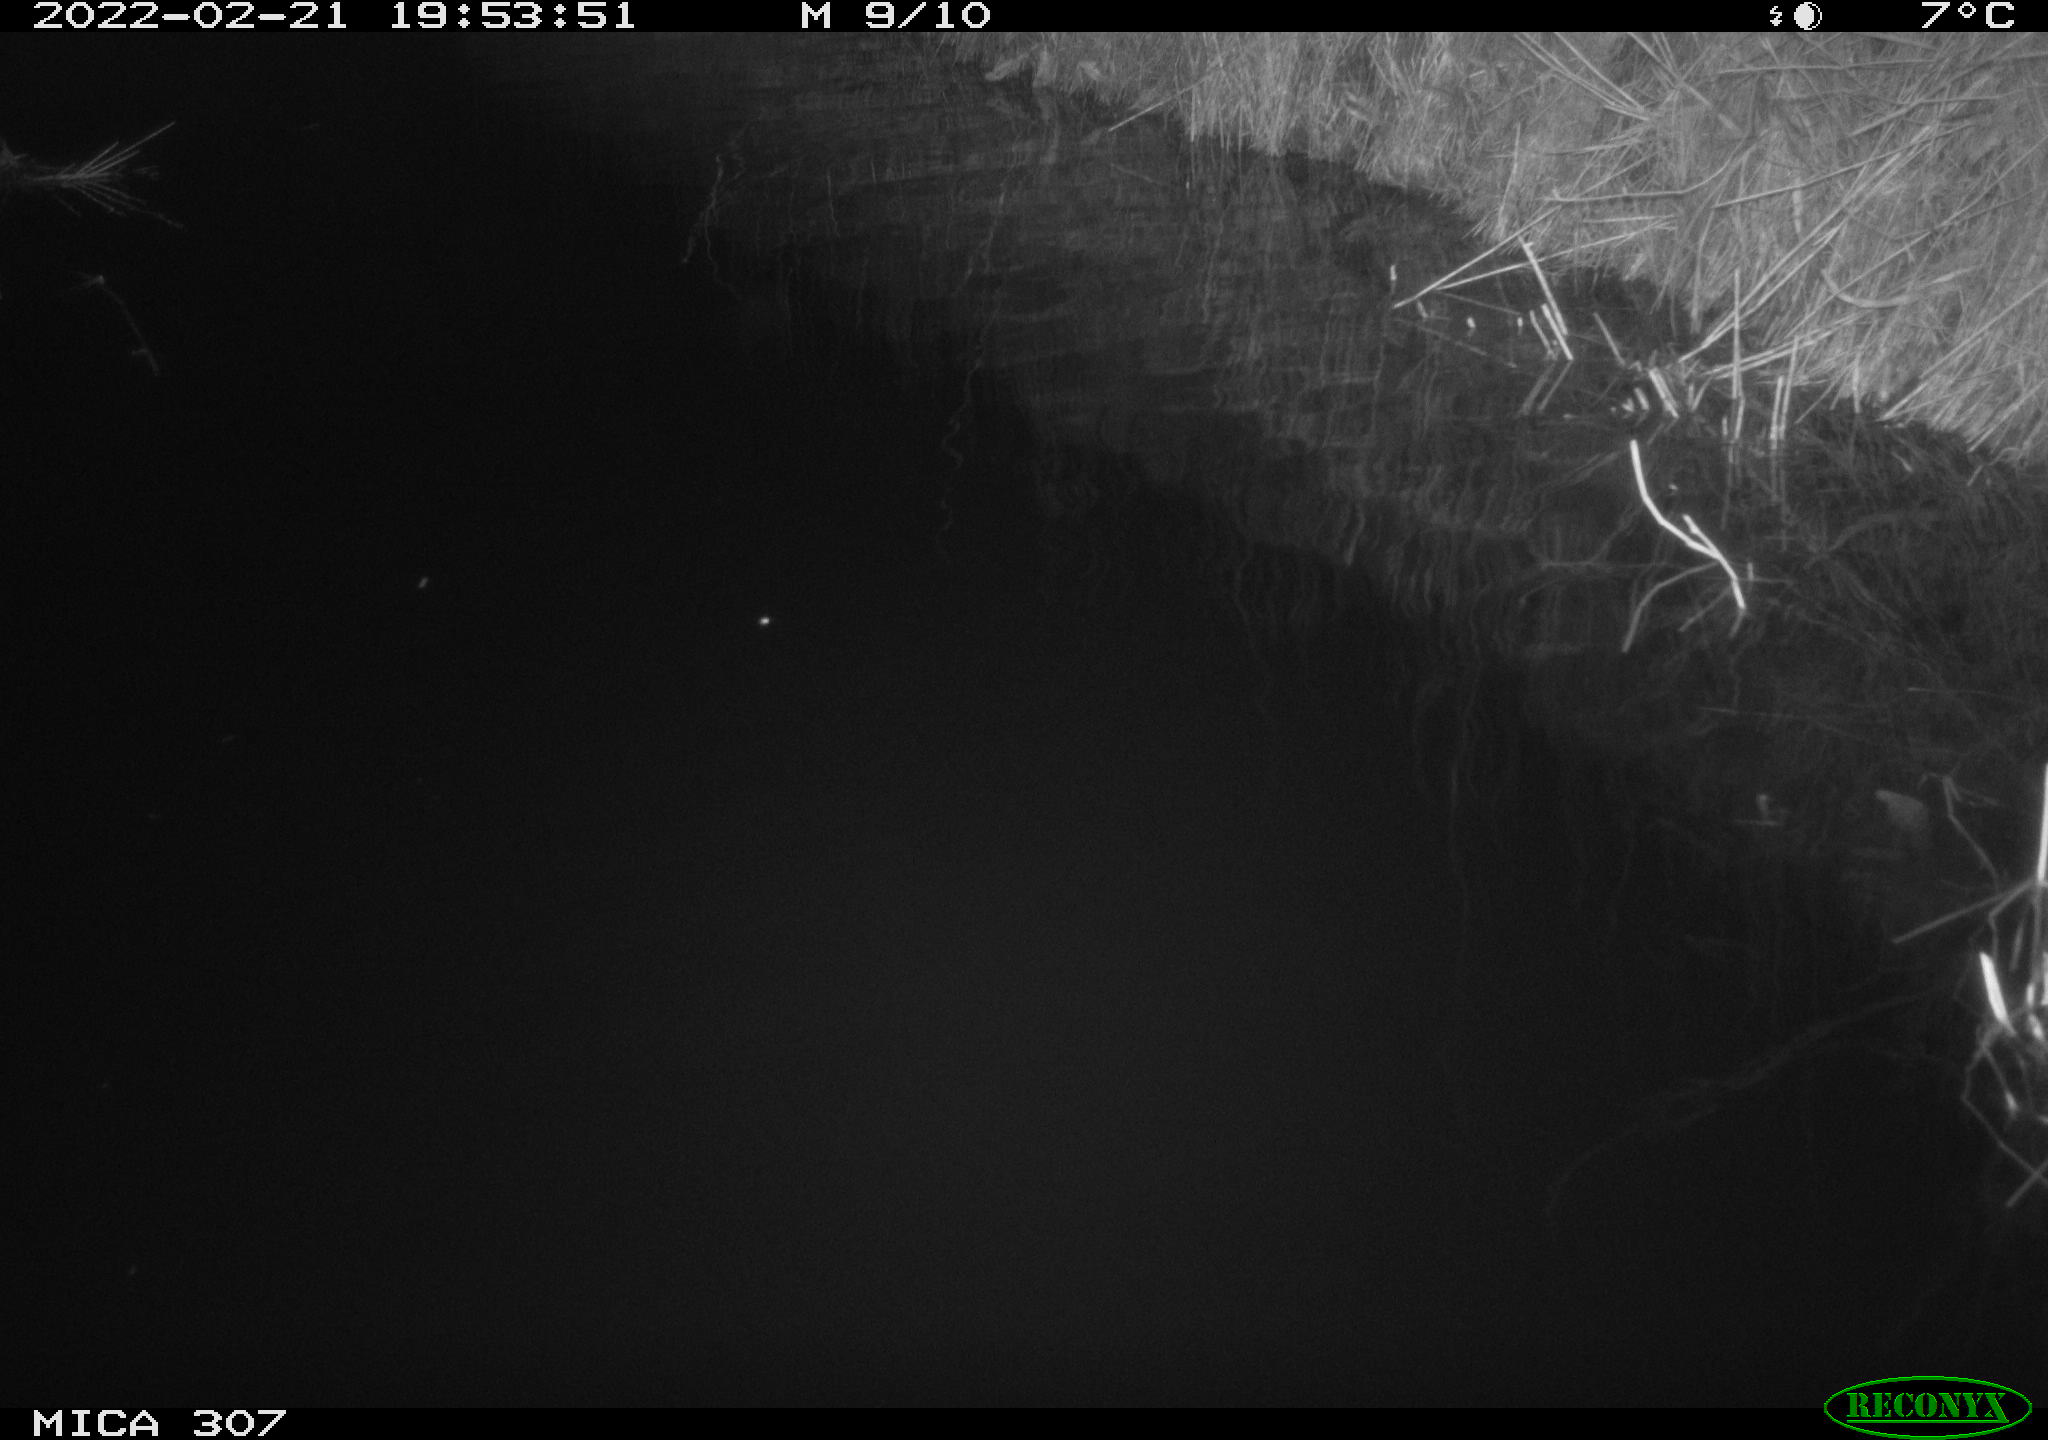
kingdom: Animalia
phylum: Chordata
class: Mammalia
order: Rodentia
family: Muridae
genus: Rattus
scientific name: Rattus norvegicus
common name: Brown rat
